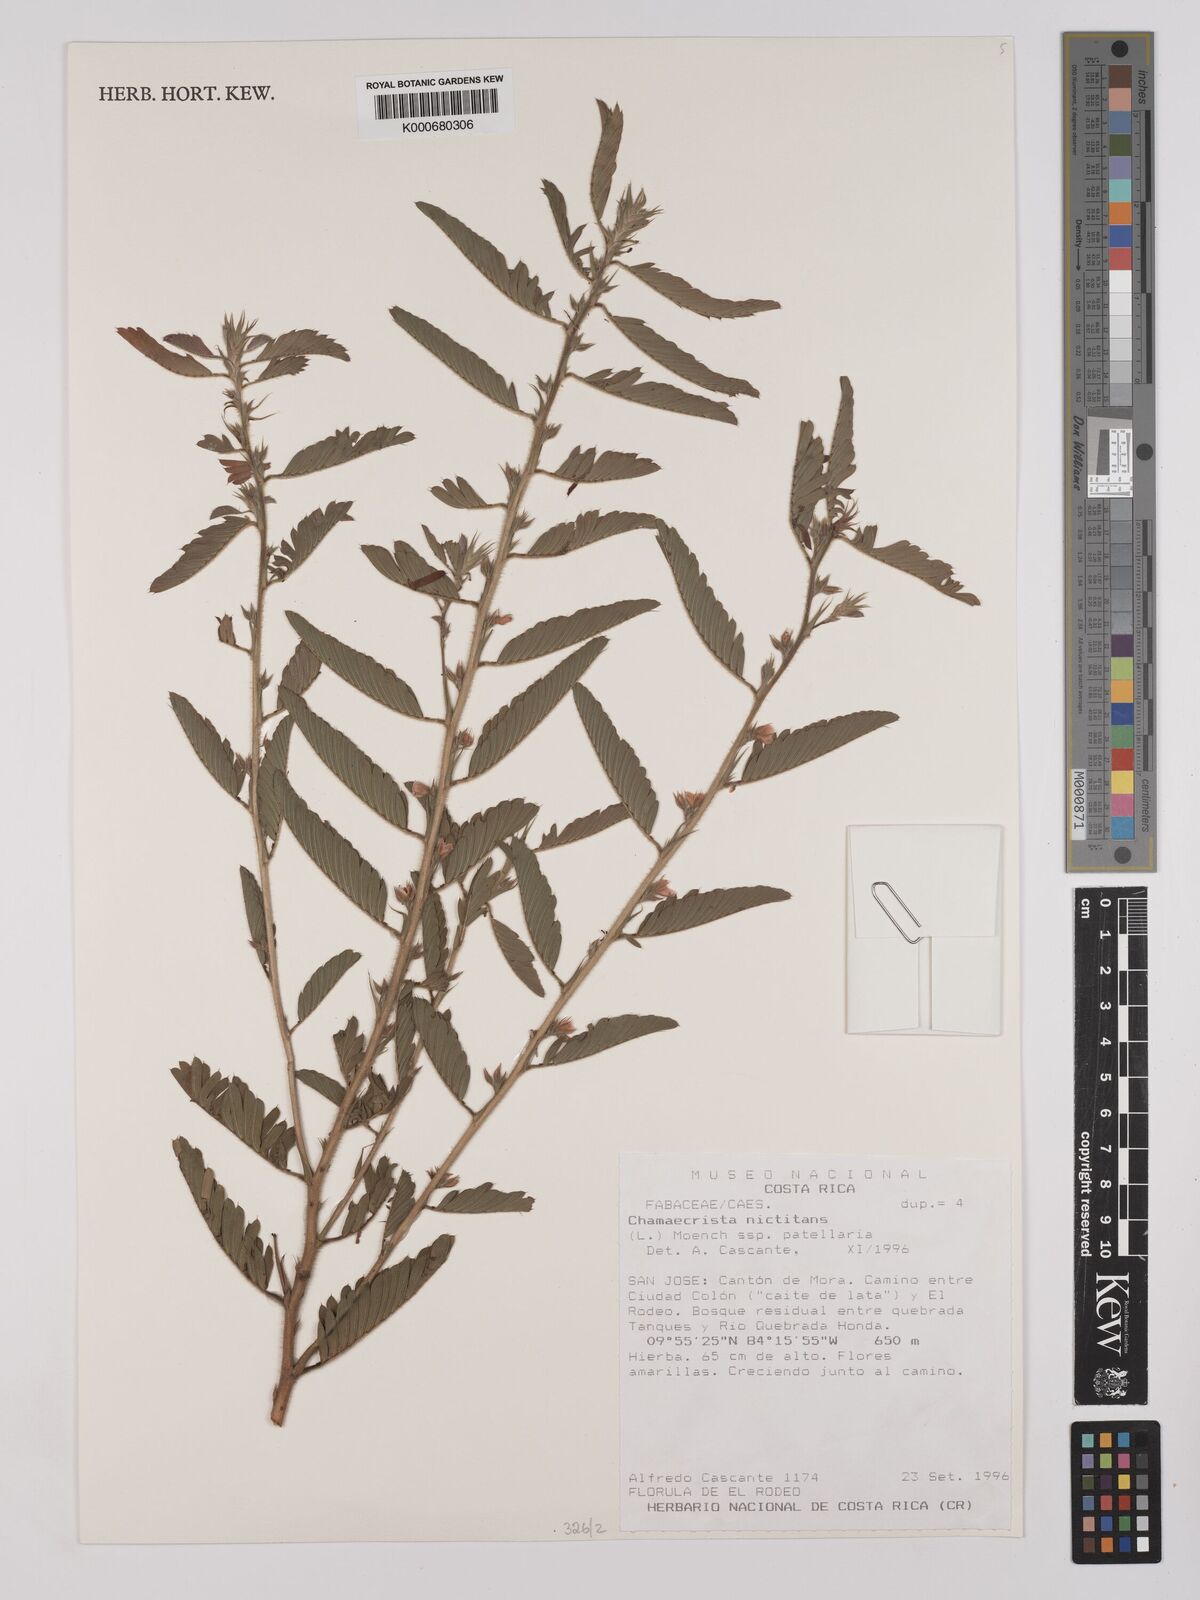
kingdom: Plantae
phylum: Tracheophyta
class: Magnoliopsida
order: Fabales
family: Fabaceae
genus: Chamaecrista
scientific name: Chamaecrista nictitans
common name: Sensitive cassia
